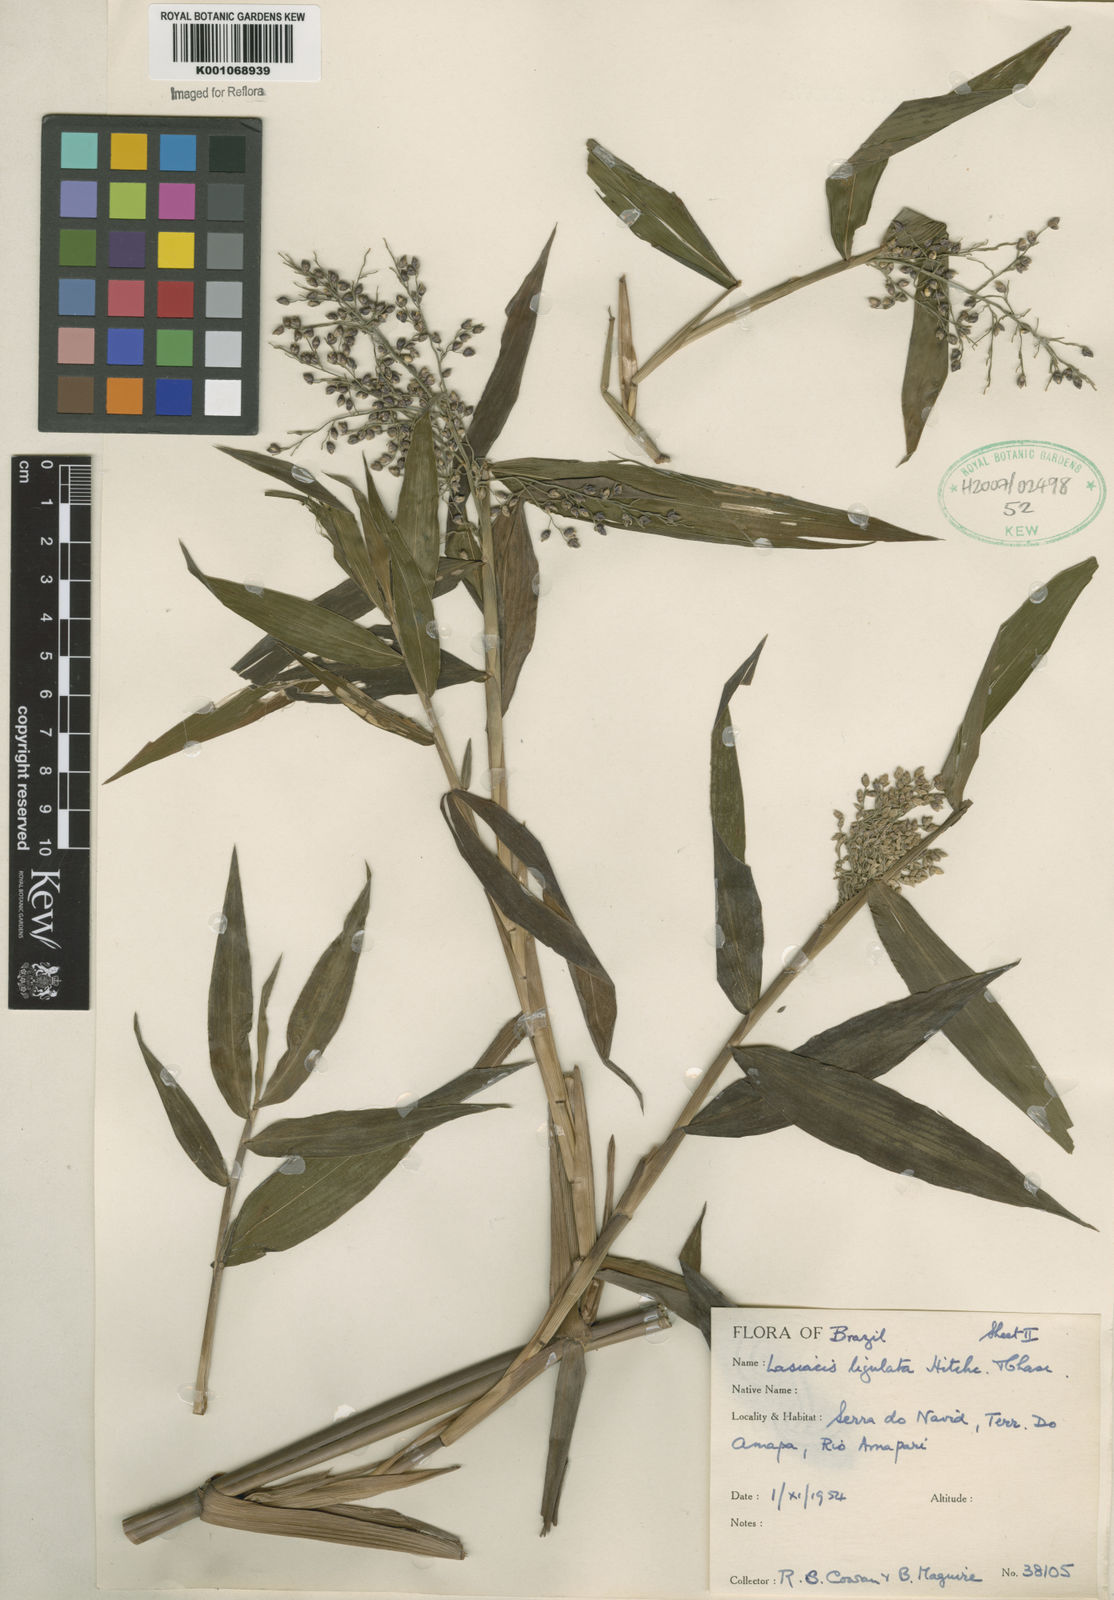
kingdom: Plantae
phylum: Tracheophyta
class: Liliopsida
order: Poales
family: Poaceae
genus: Lasiacis
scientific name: Lasiacis ligulata
